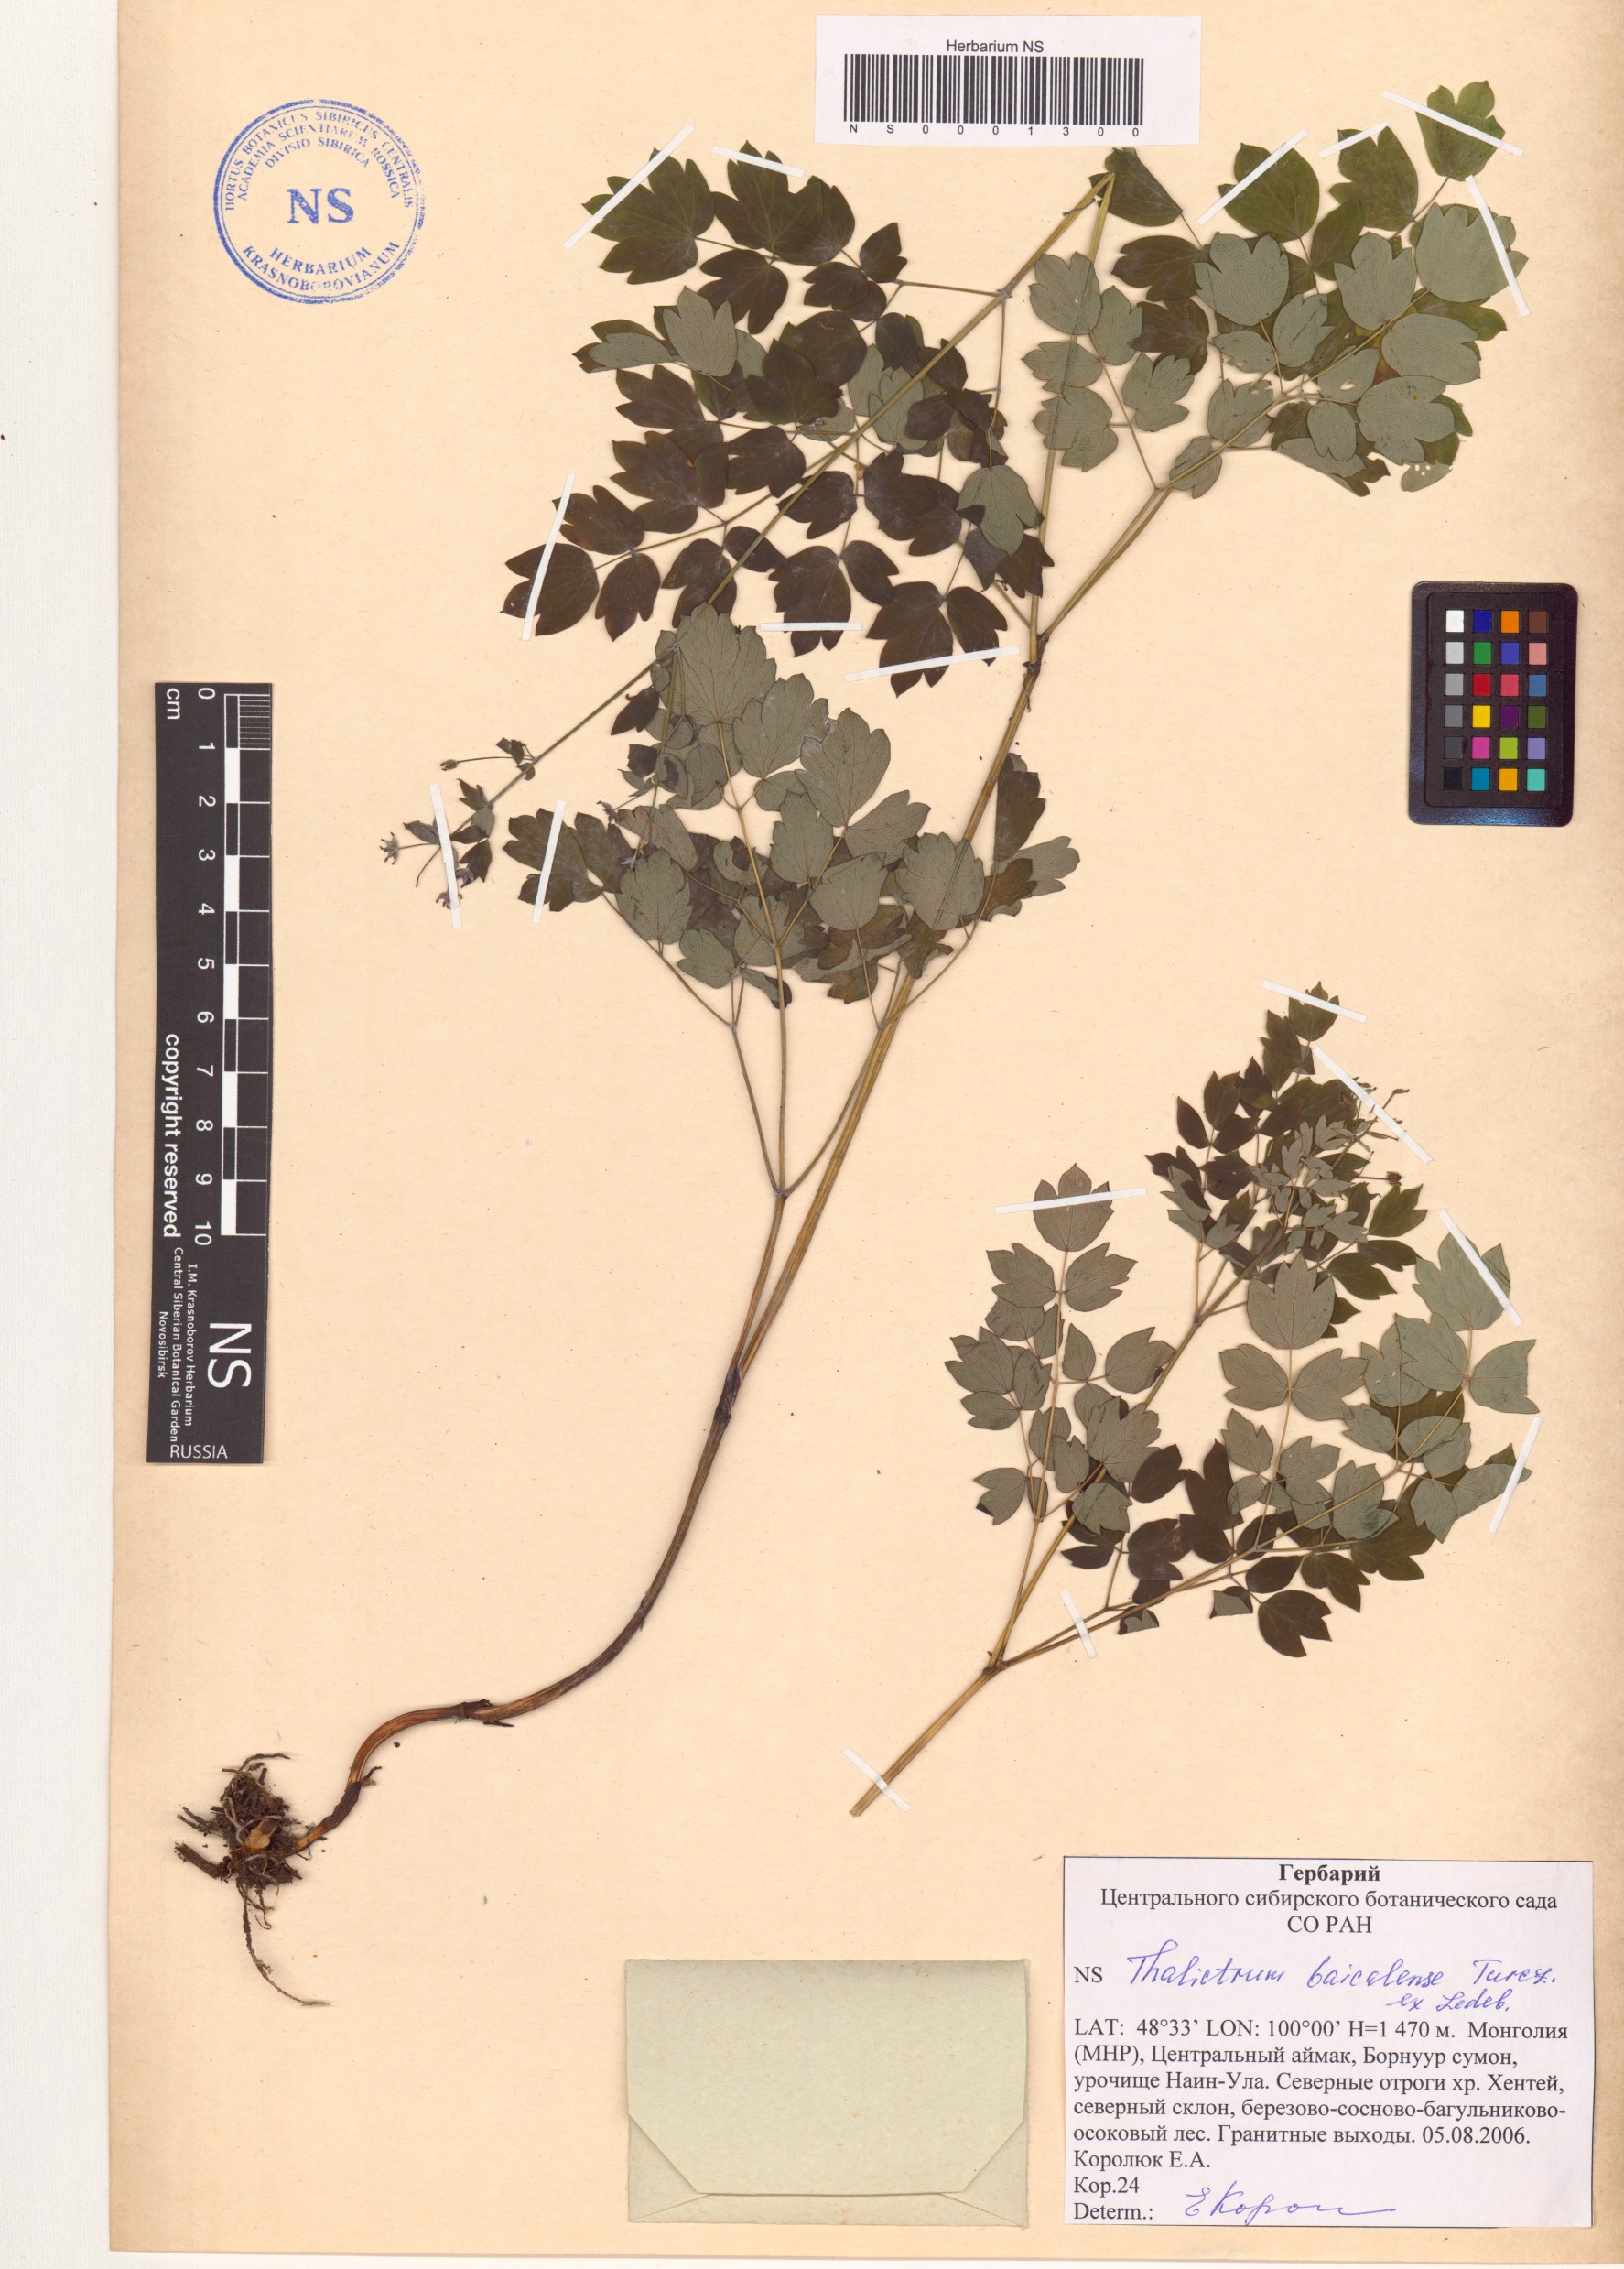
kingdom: Plantae
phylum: Tracheophyta
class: Magnoliopsida
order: Ranunculales
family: Ranunculaceae
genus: Thalictrum
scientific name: Thalictrum baicalense
